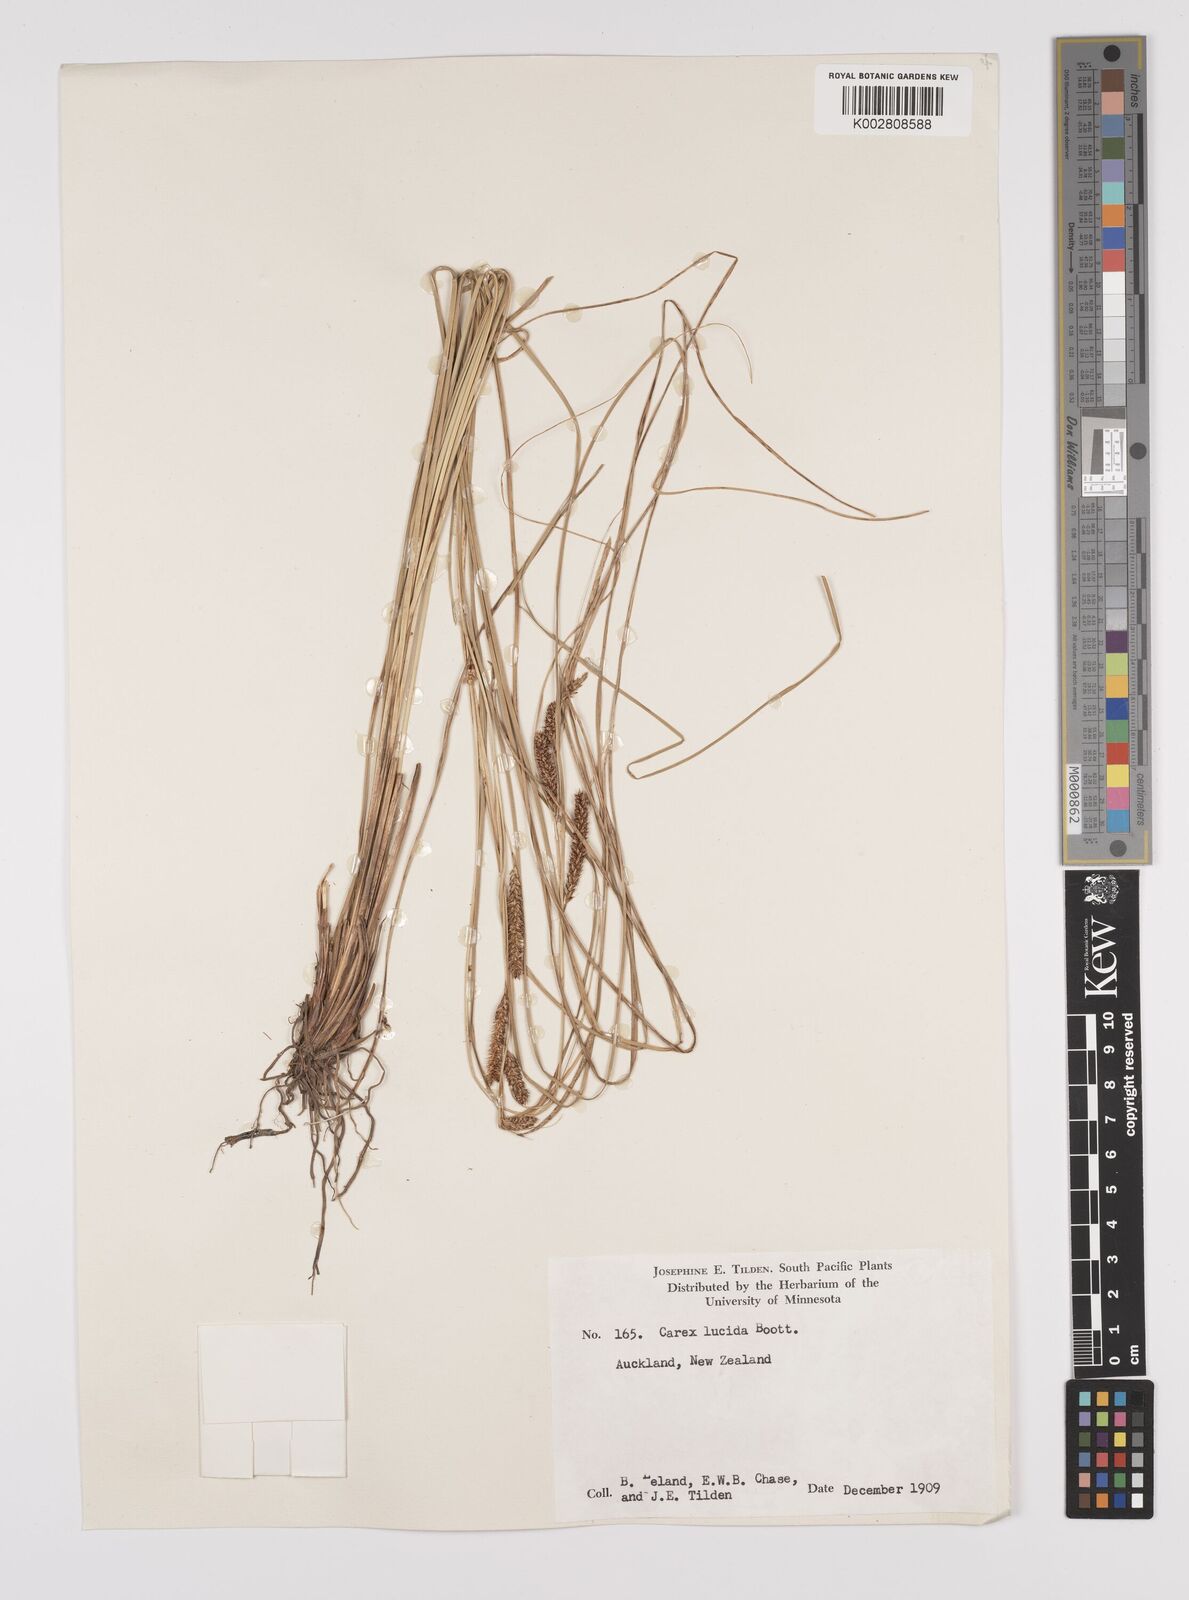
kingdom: Plantae
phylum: Tracheophyta
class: Liliopsida
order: Poales
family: Cyperaceae
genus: Carex
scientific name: Carex flagellifera
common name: Glen murray tussock
